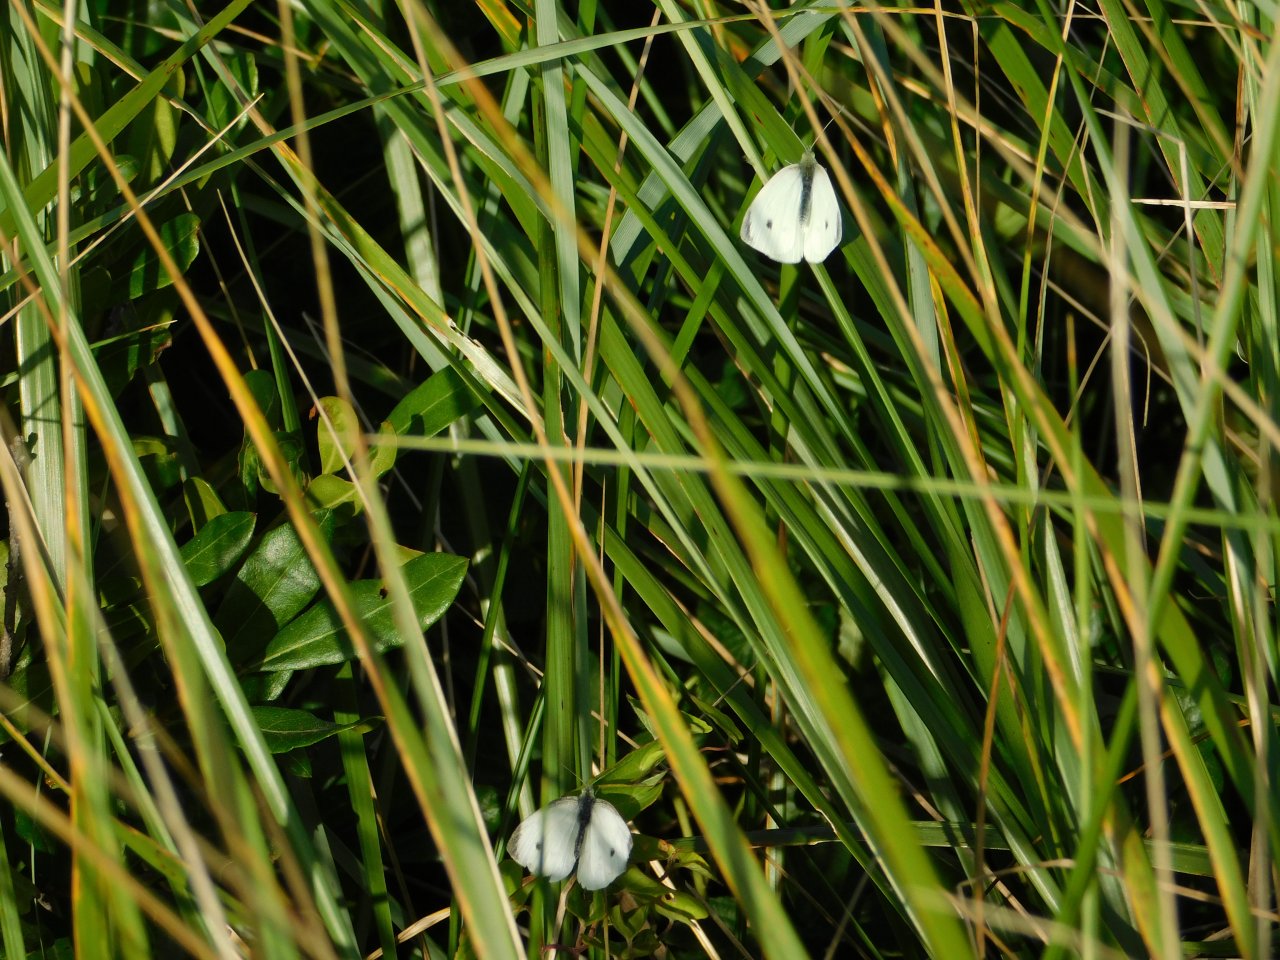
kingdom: Animalia
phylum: Arthropoda
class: Insecta
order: Lepidoptera
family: Pieridae
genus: Pieris
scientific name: Pieris rapae
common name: Cabbage White
